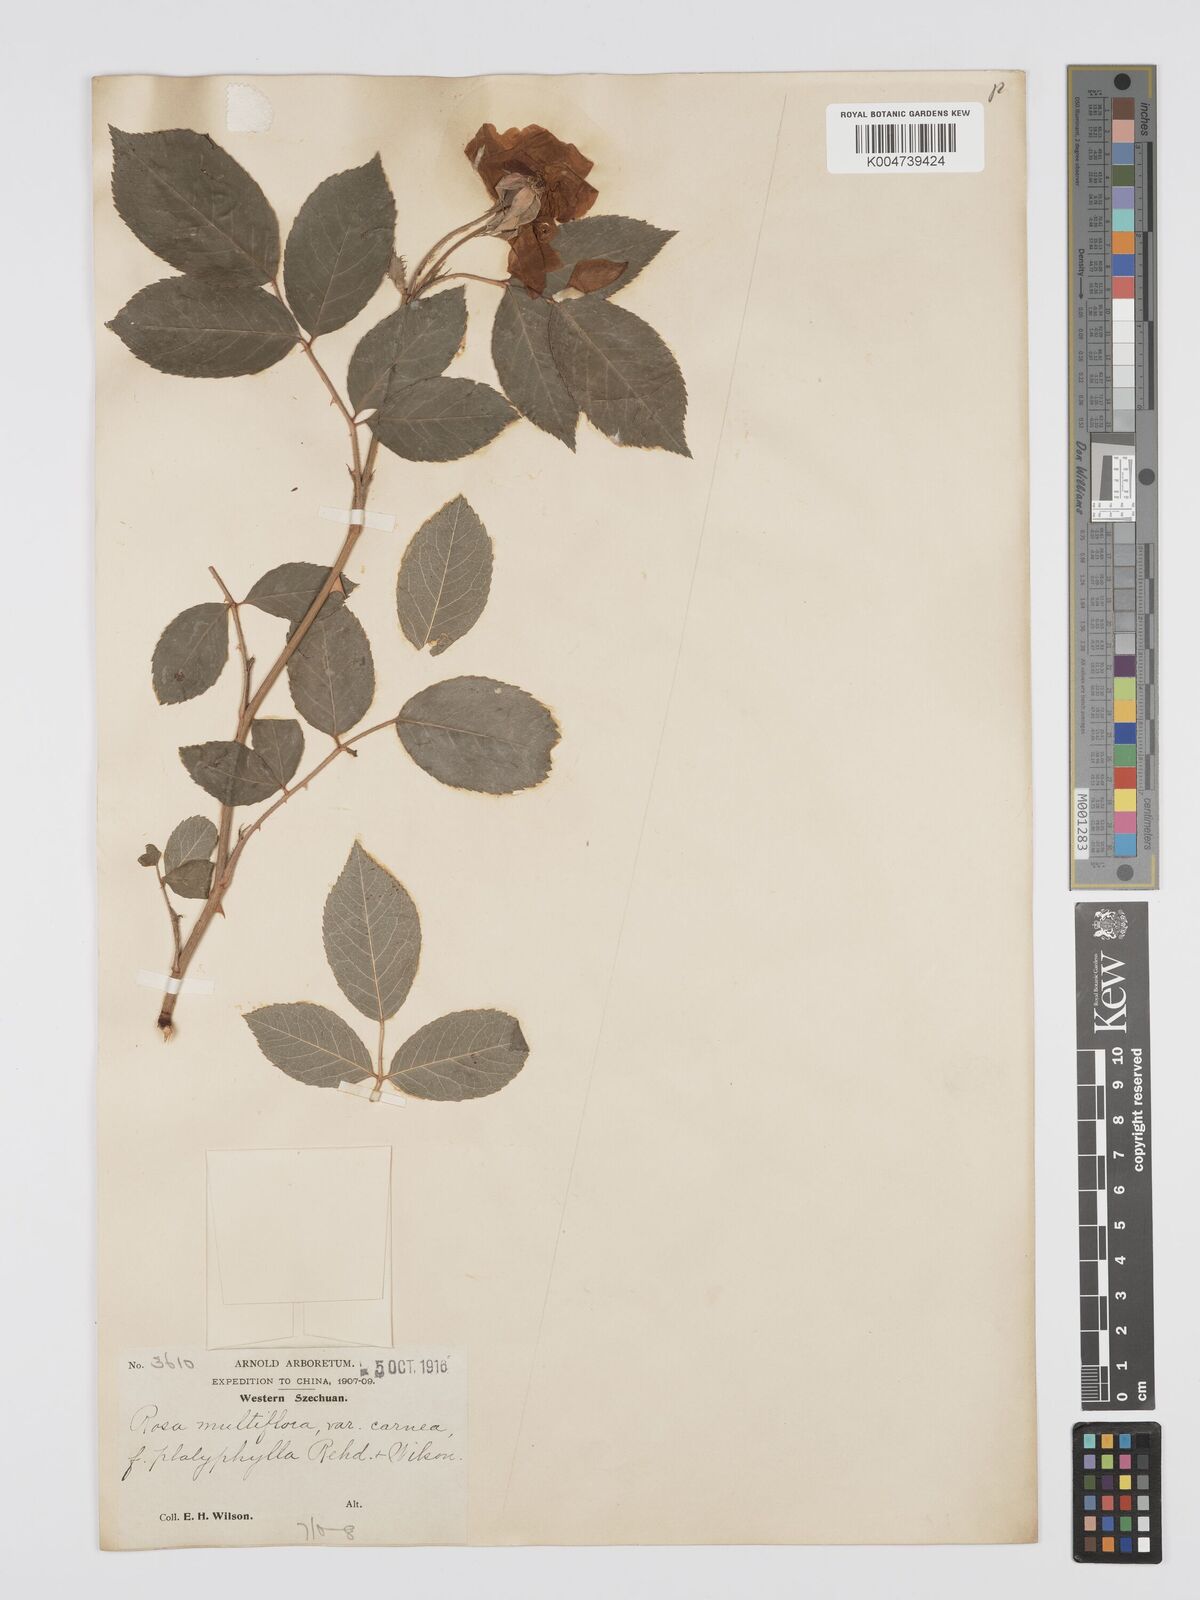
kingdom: Plantae
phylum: Tracheophyta
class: Magnoliopsida
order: Rosales
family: Rosaceae
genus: Rosa
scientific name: Rosa multiflora
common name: Multiflora rose
